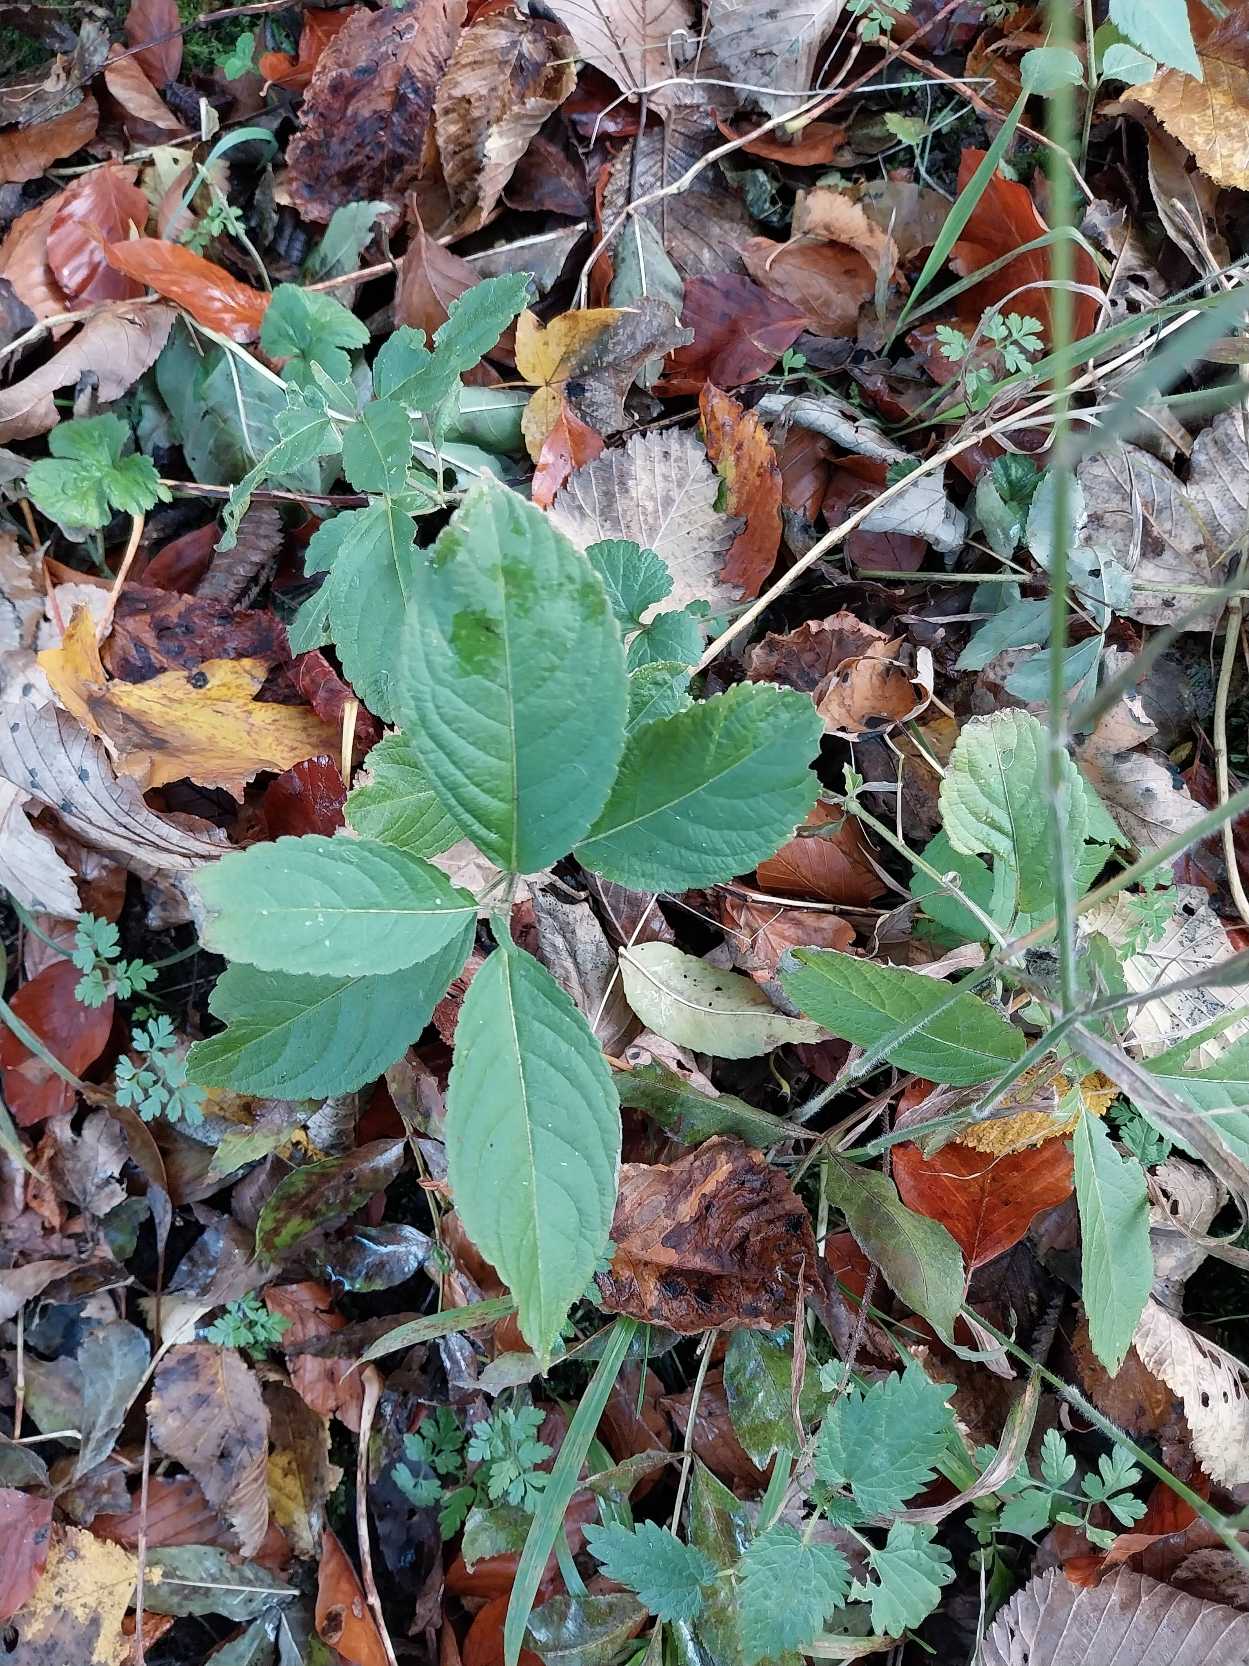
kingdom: Plantae
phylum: Tracheophyta
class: Magnoliopsida
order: Malpighiales
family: Euphorbiaceae
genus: Mercurialis
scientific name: Mercurialis perennis
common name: Almindelig bingelurt
